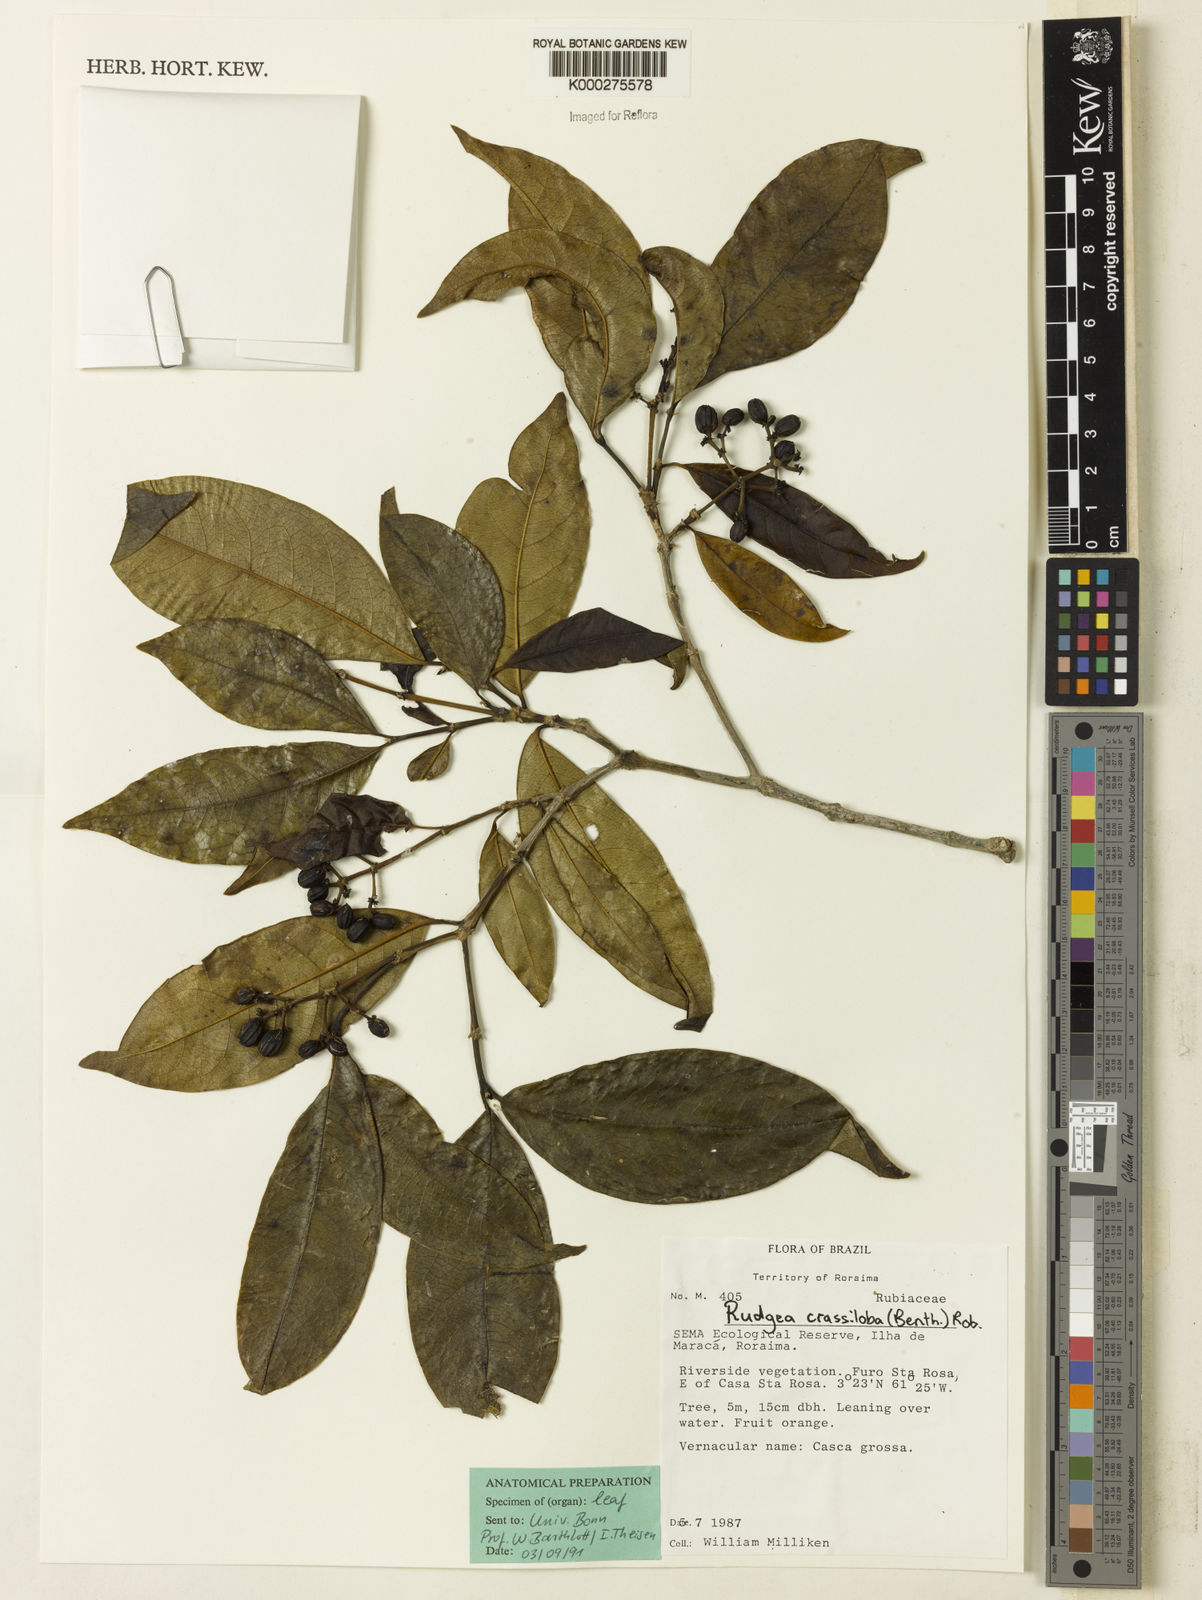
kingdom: Plantae
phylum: Tracheophyta
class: Magnoliopsida
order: Gentianales
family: Rubiaceae
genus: Rudgea
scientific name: Rudgea crassiloba
